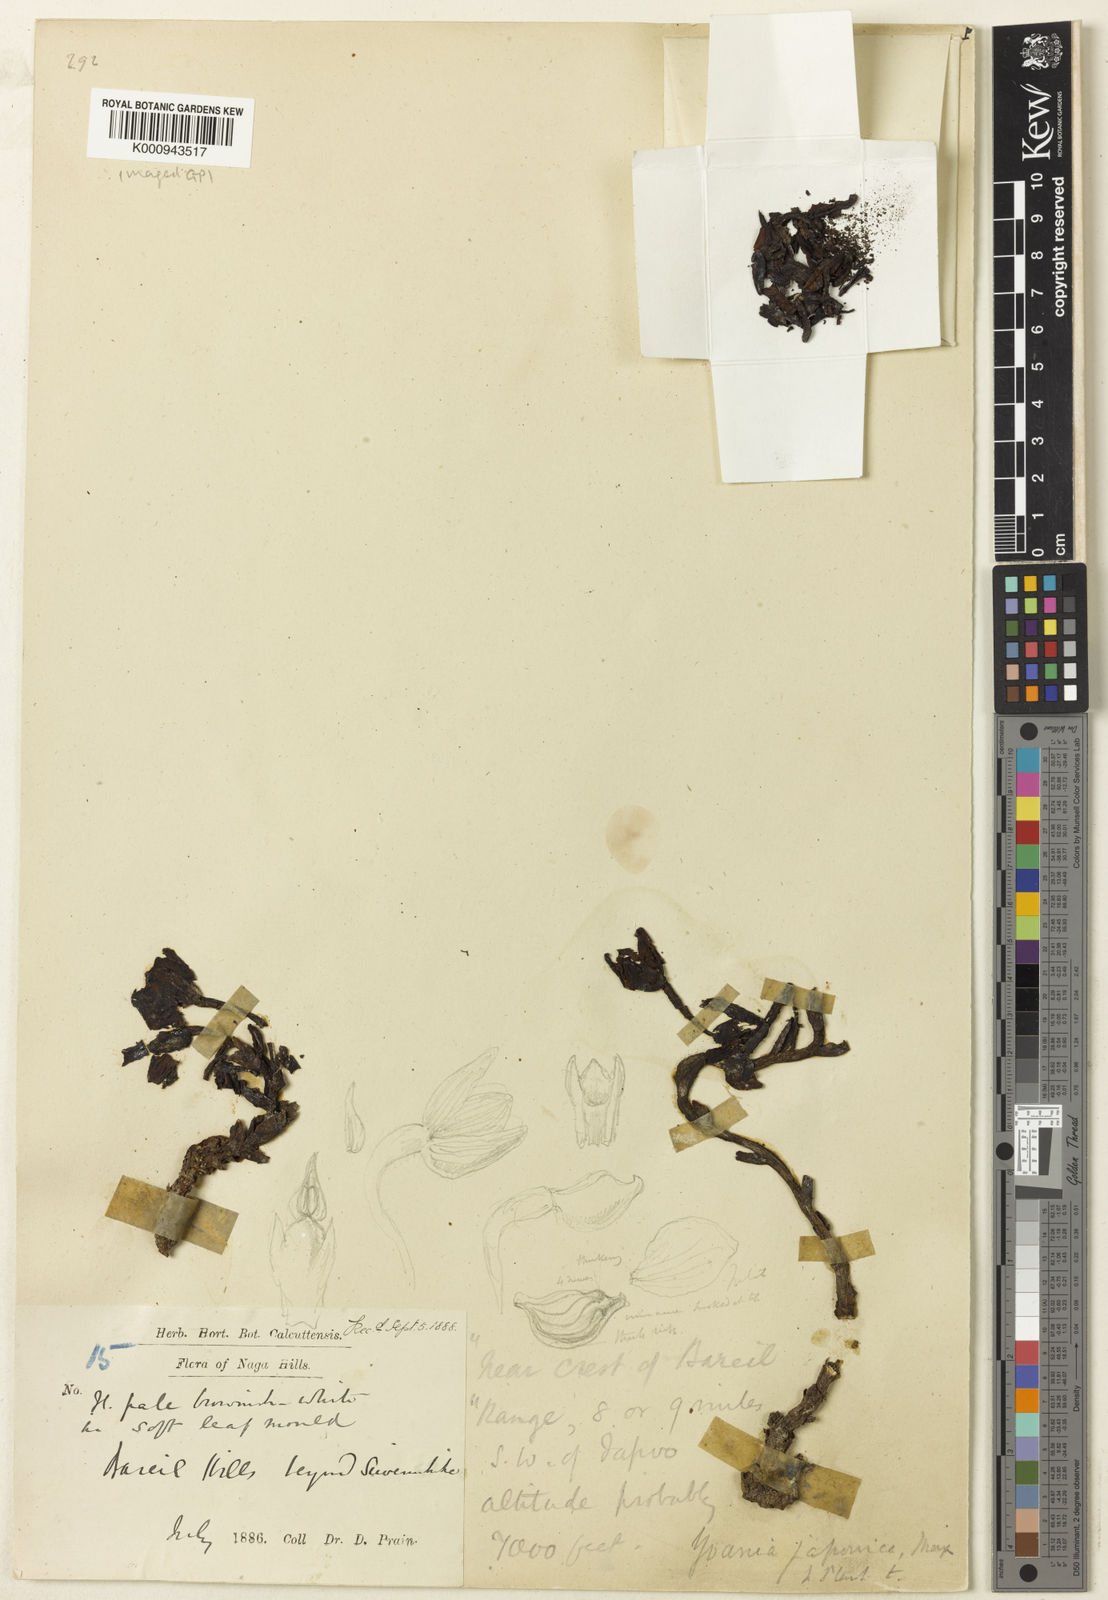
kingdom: Plantae
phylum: Tracheophyta
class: Liliopsida
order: Asparagales
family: Orchidaceae
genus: Yoania
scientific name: Yoania prainii
